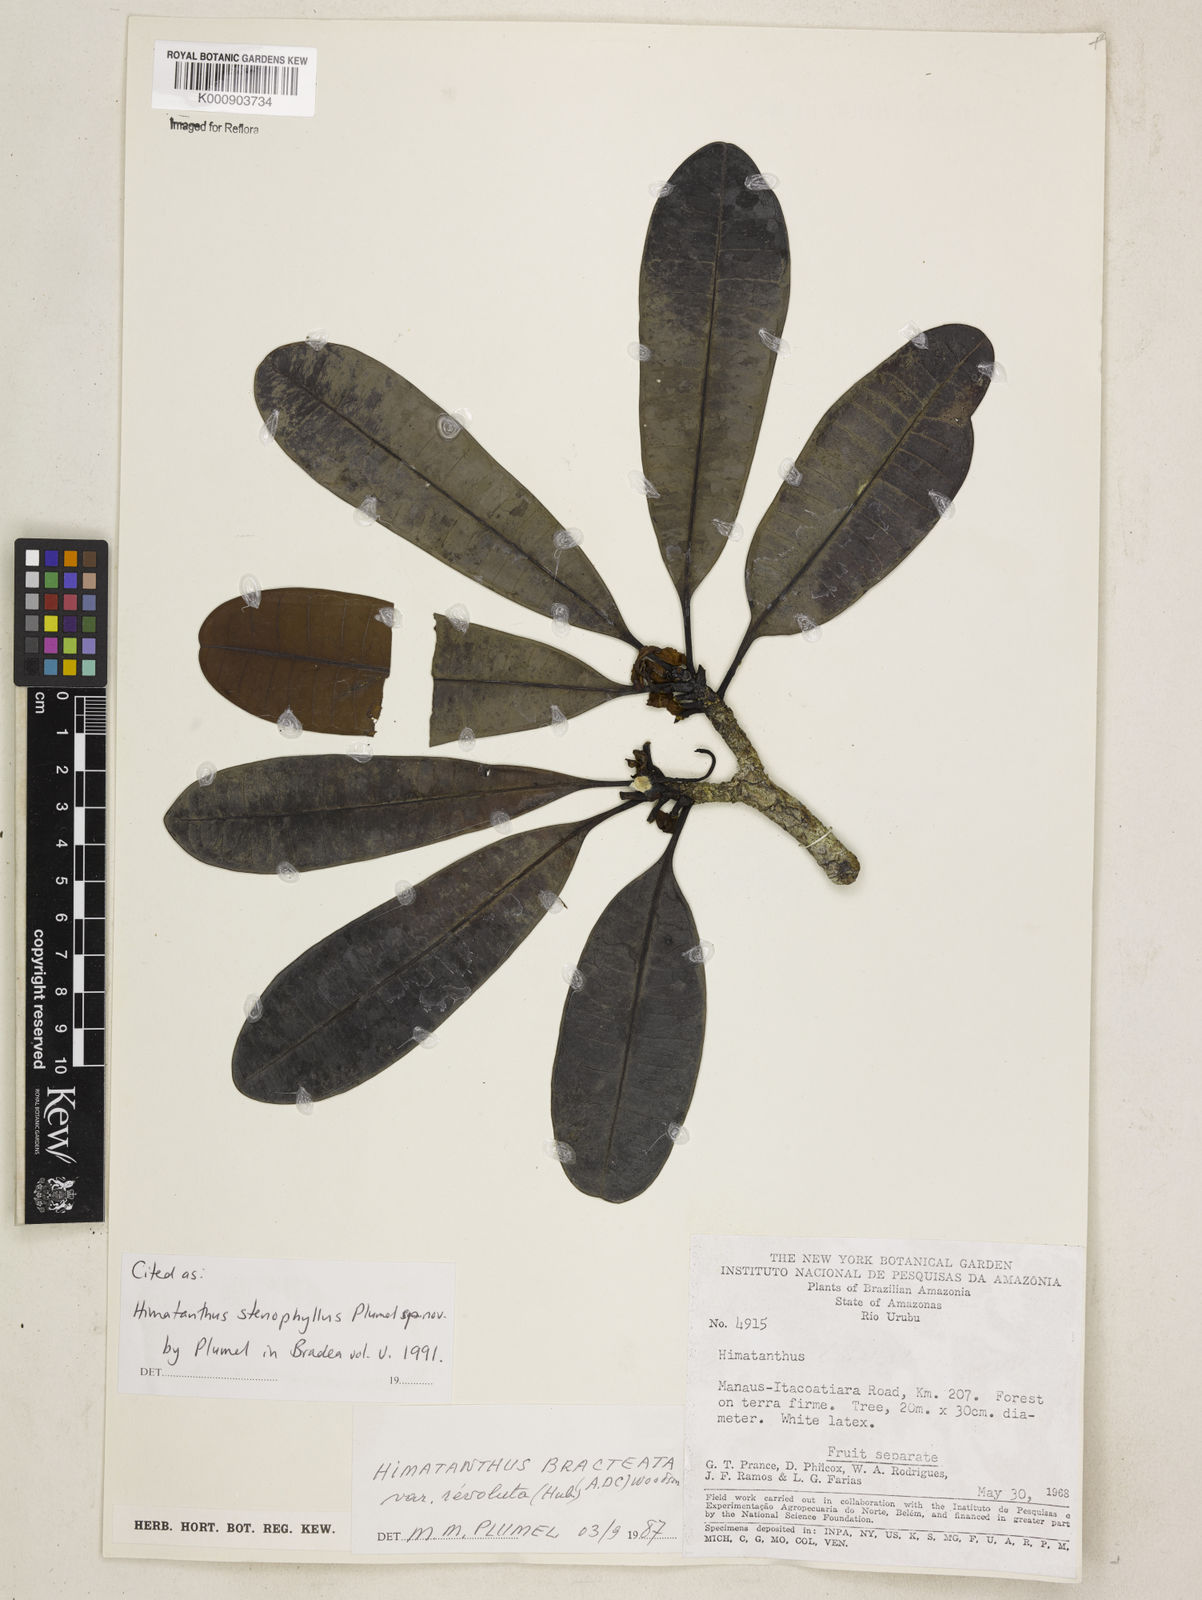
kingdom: Plantae
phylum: Tracheophyta
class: Magnoliopsida
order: Gentianales
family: Apocynaceae
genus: Himatanthus
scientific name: Himatanthus revolutus
